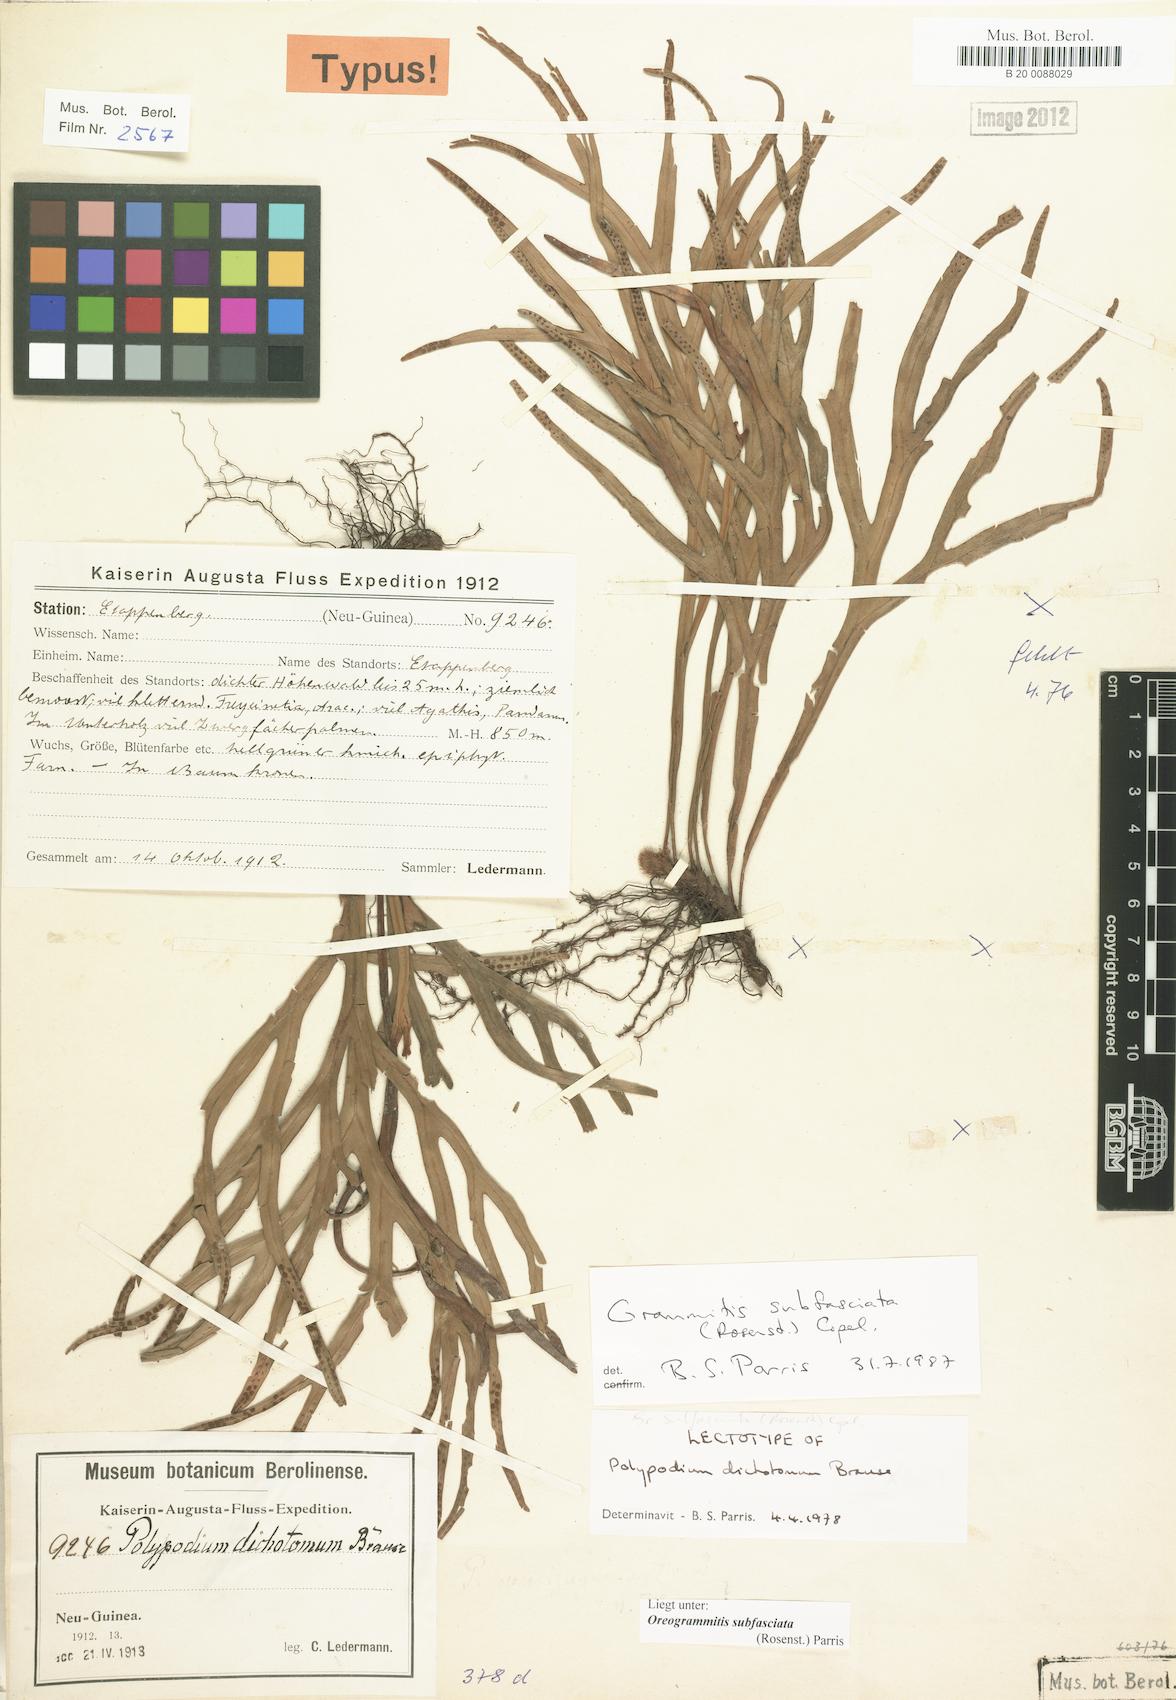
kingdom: Plantae
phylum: Tracheophyta
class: Polypodiopsida
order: Polypodiales
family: Polypodiaceae
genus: Oreogrammitis
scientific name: Oreogrammitis subfasciata
